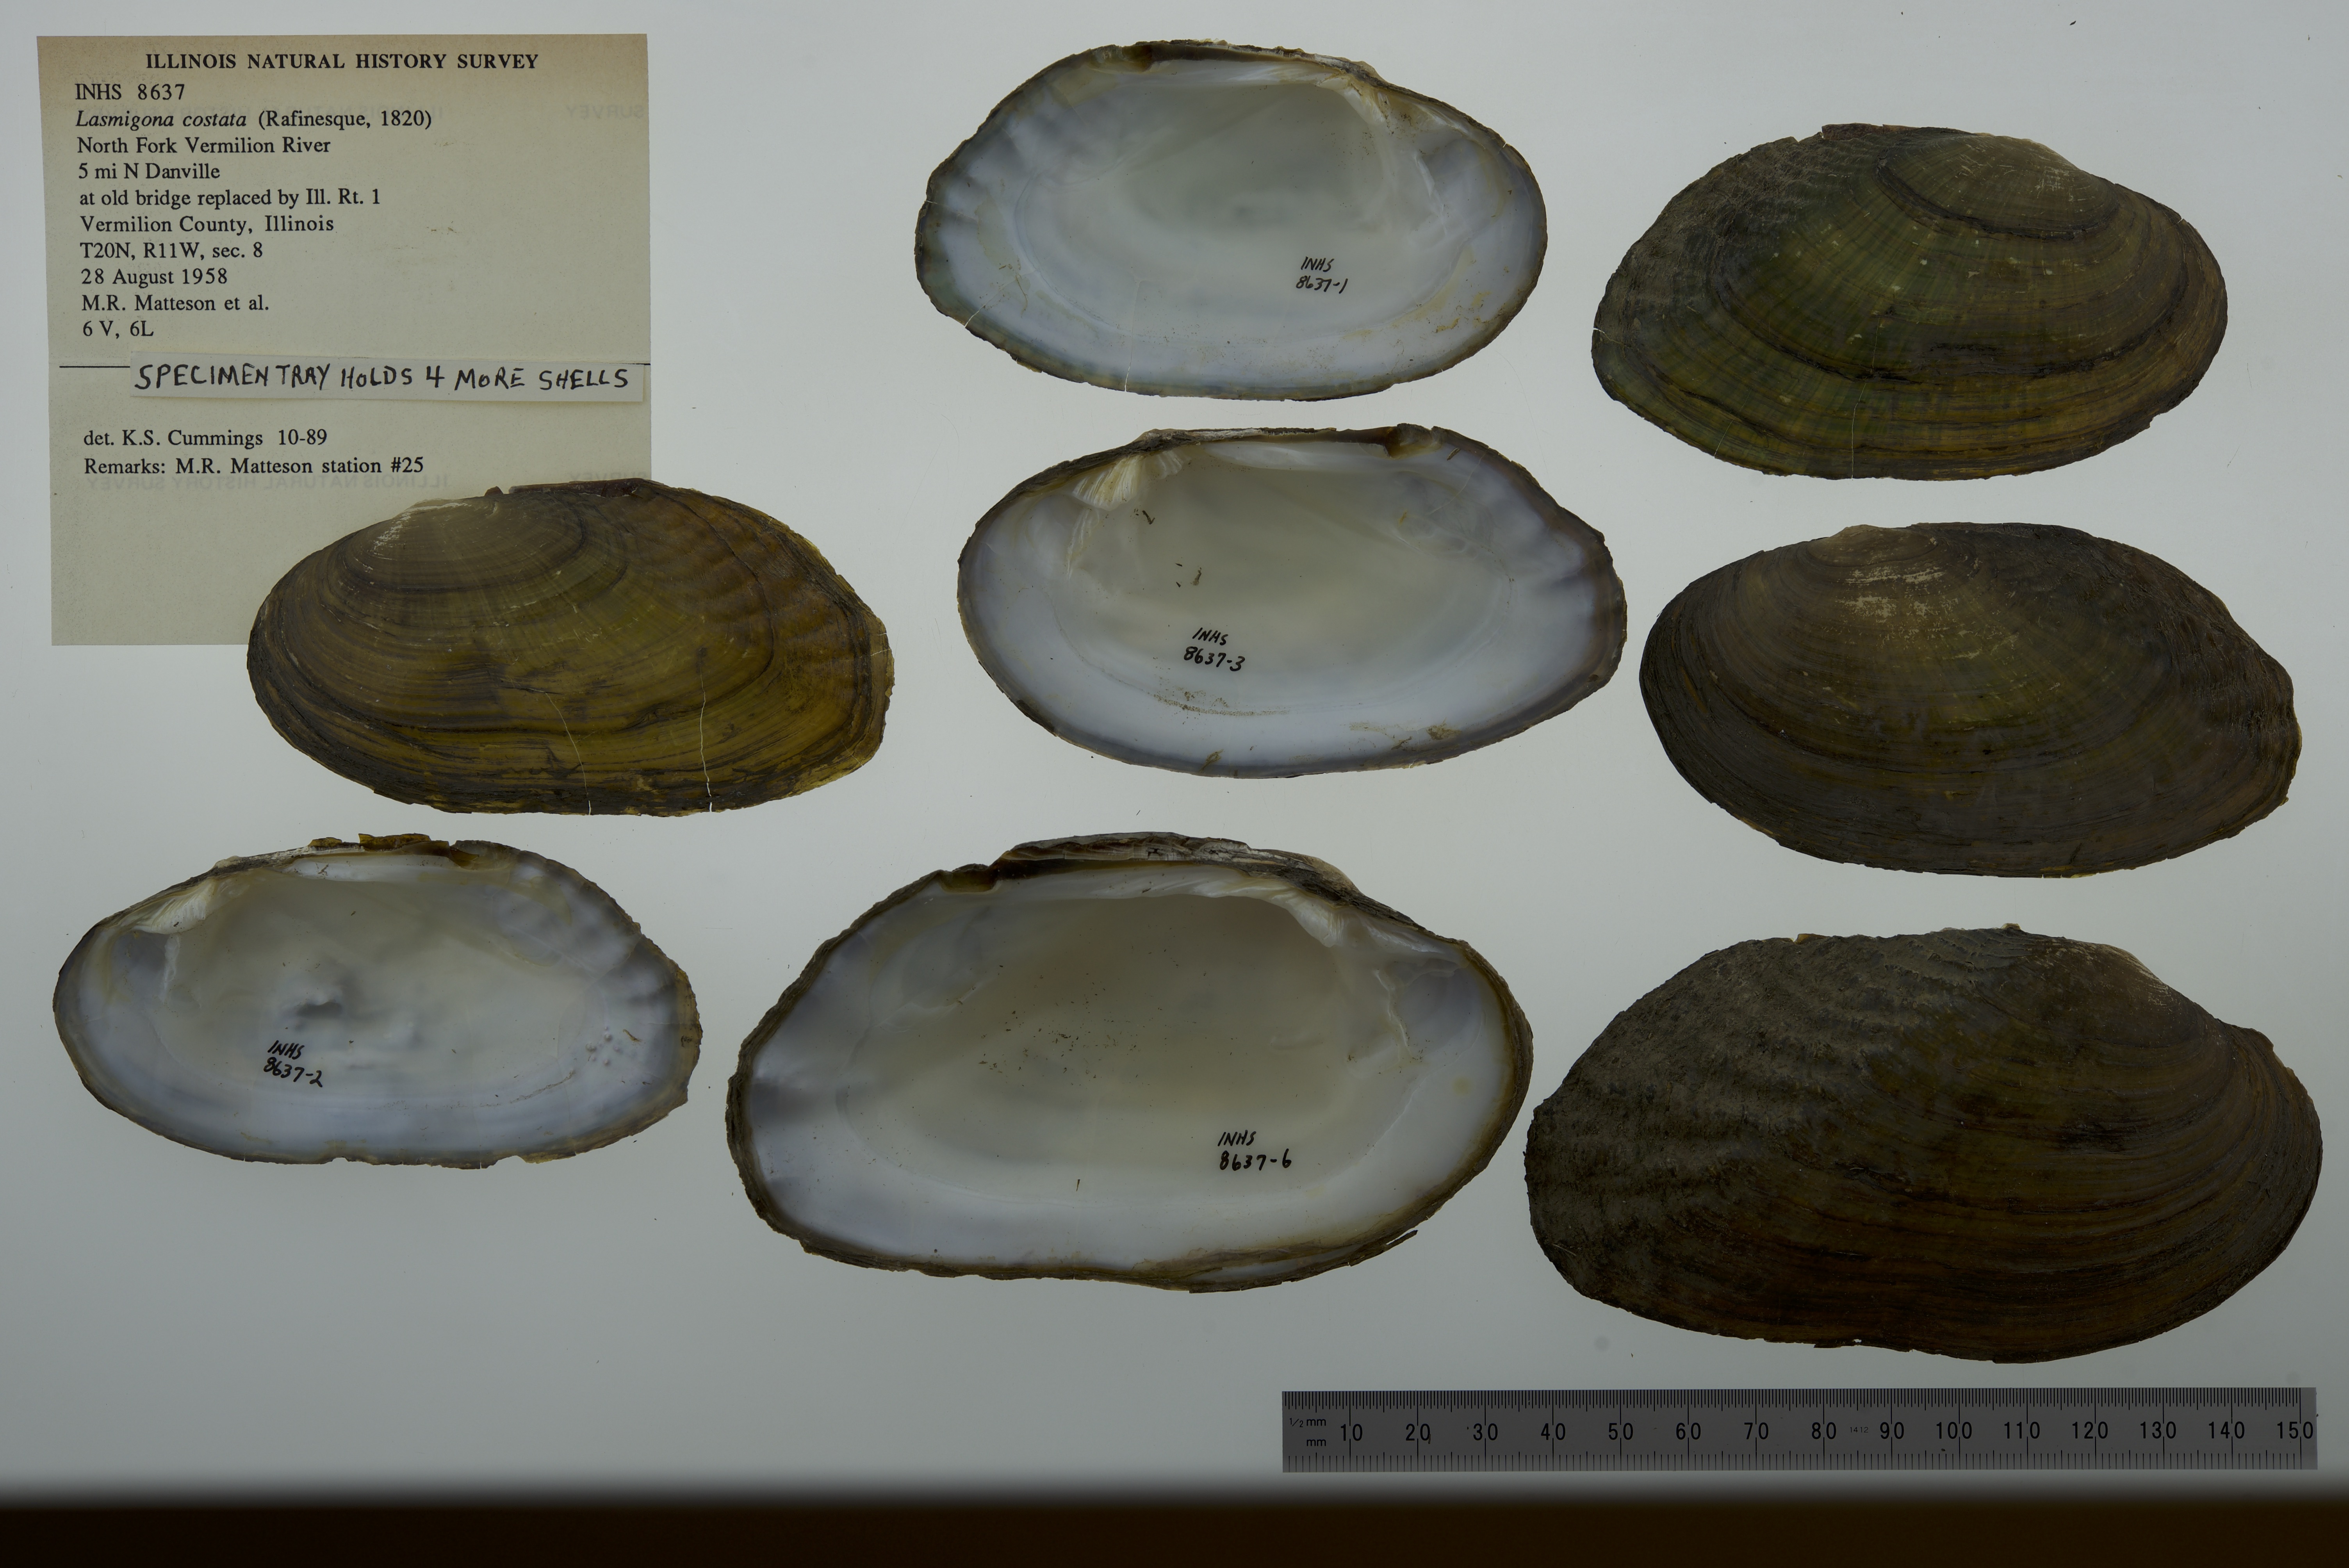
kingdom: Animalia
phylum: Mollusca
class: Bivalvia
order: Unionida
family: Unionidae
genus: Lasmigona
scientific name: Lasmigona costata
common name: Flutedshell
